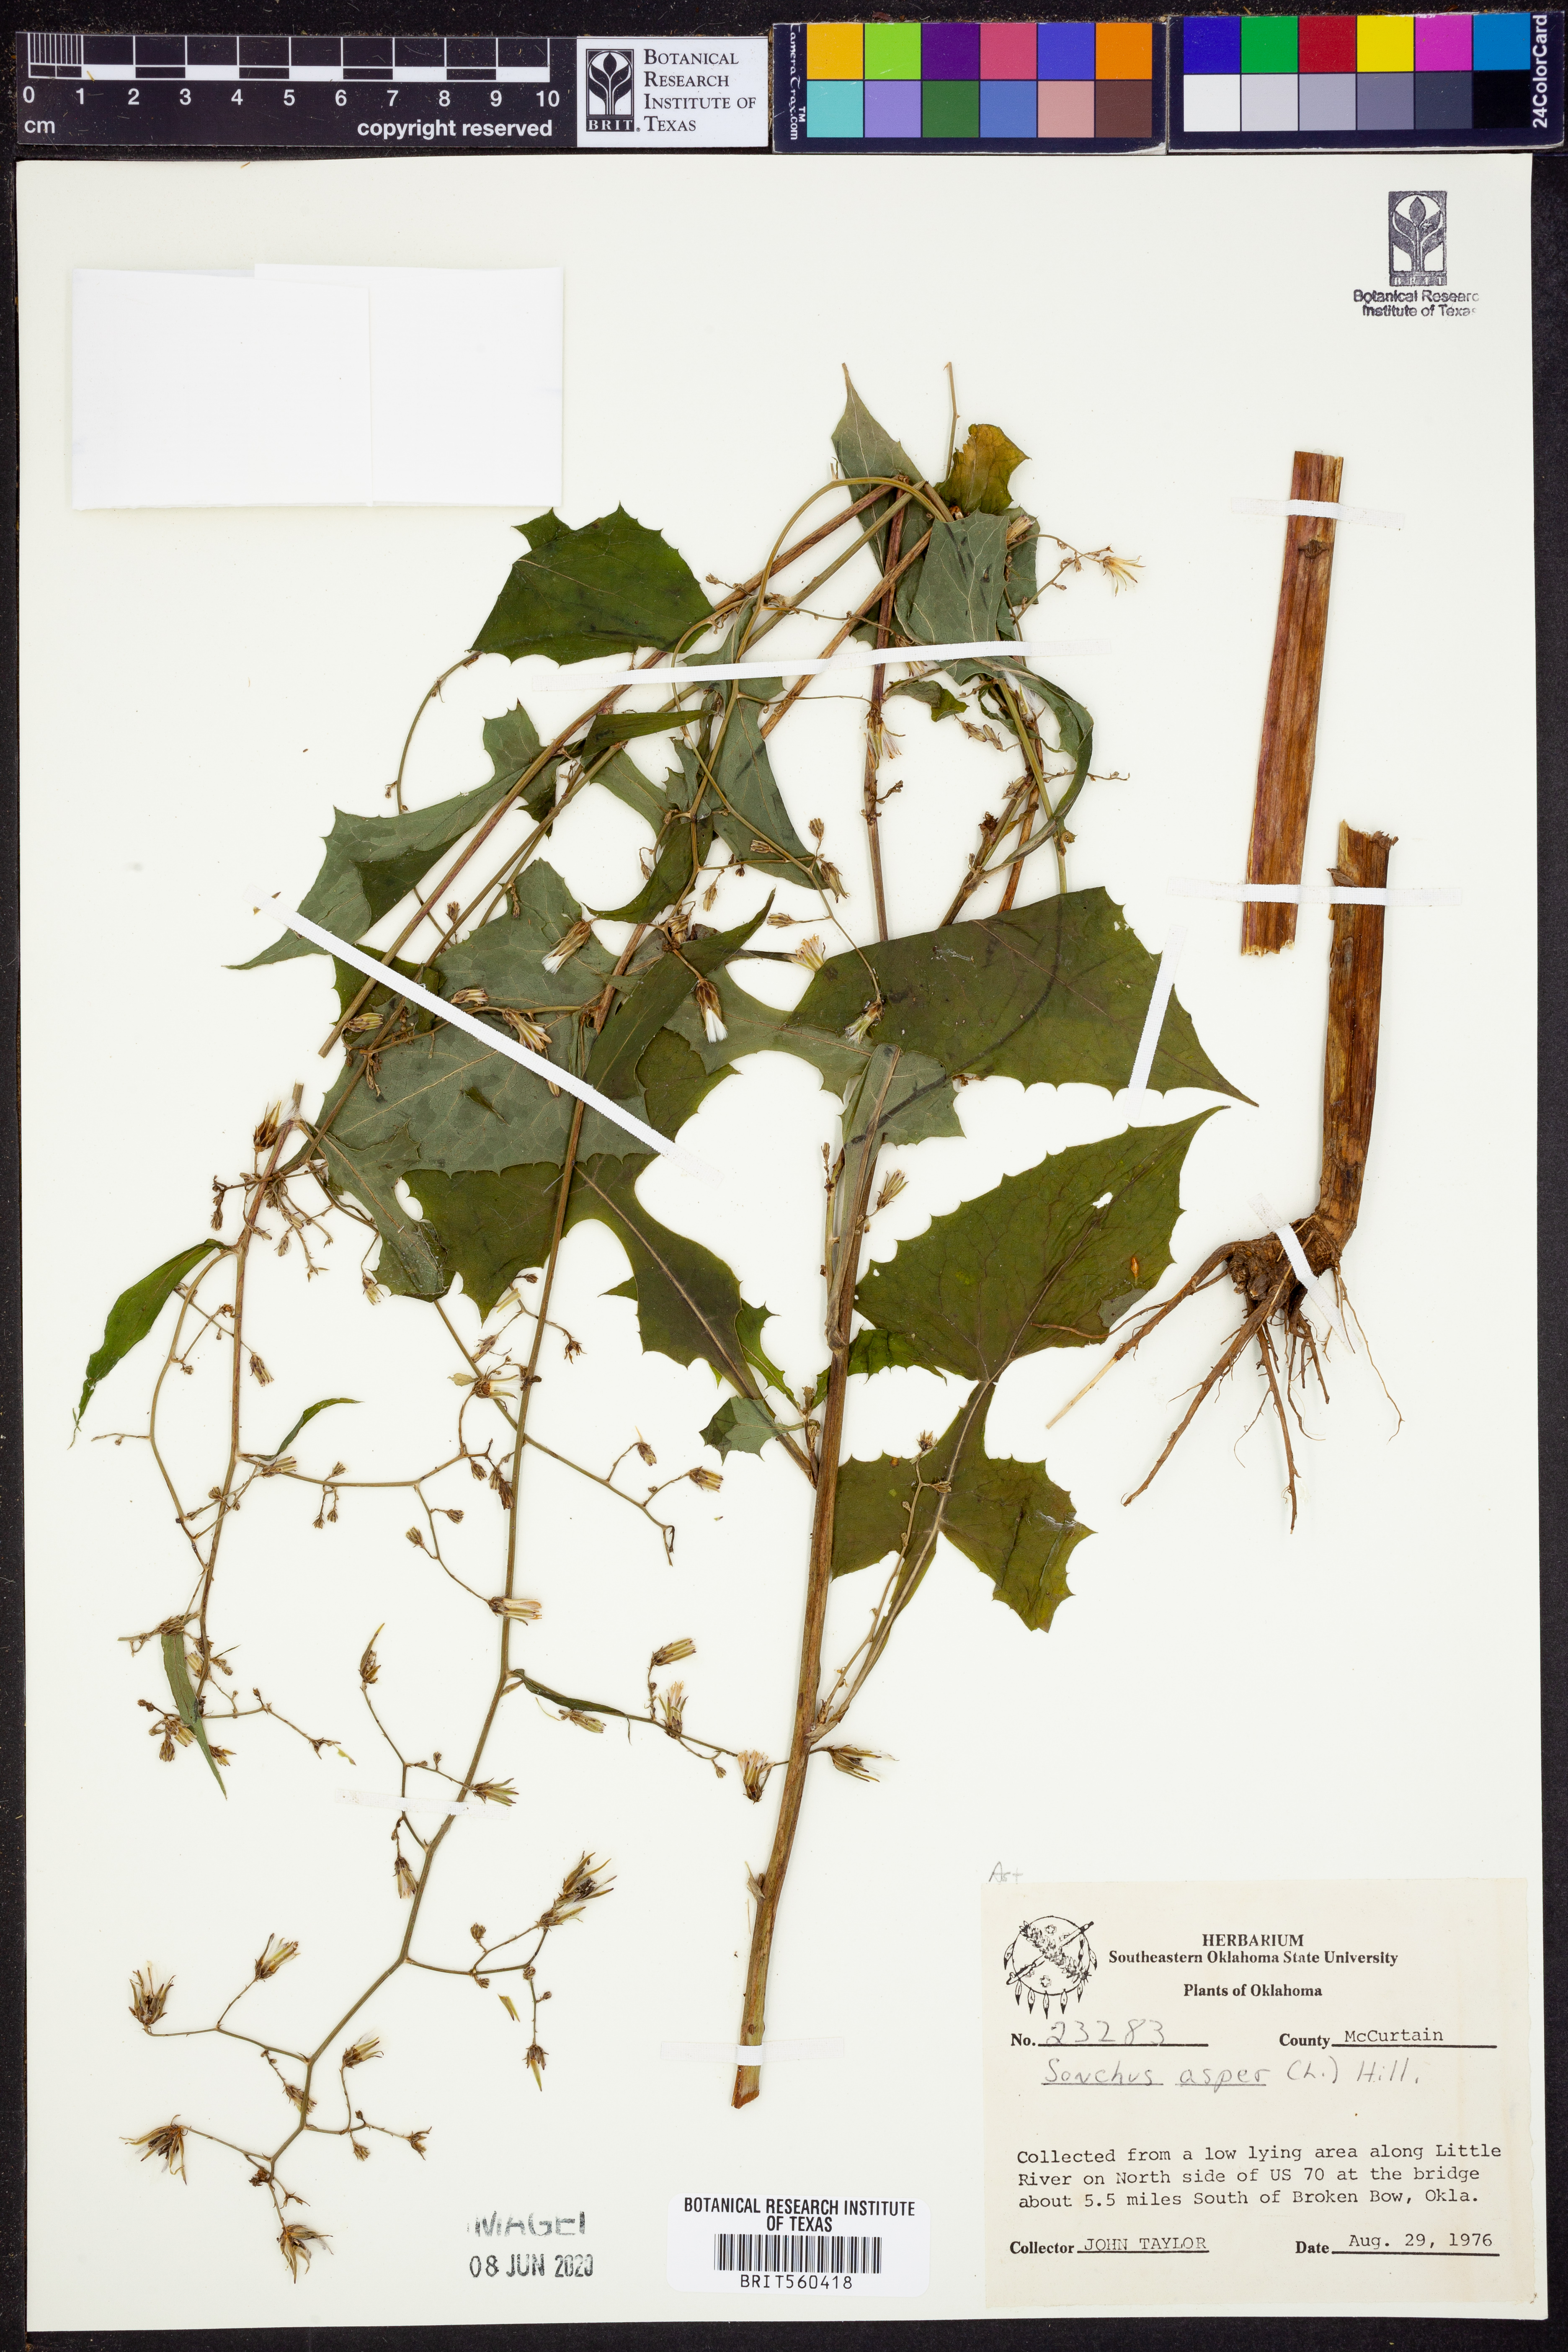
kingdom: Plantae
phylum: Tracheophyta
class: Magnoliopsida
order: Asterales
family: Asteraceae
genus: Sonchus
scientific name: Sonchus asper
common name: Prickly sow-thistle
